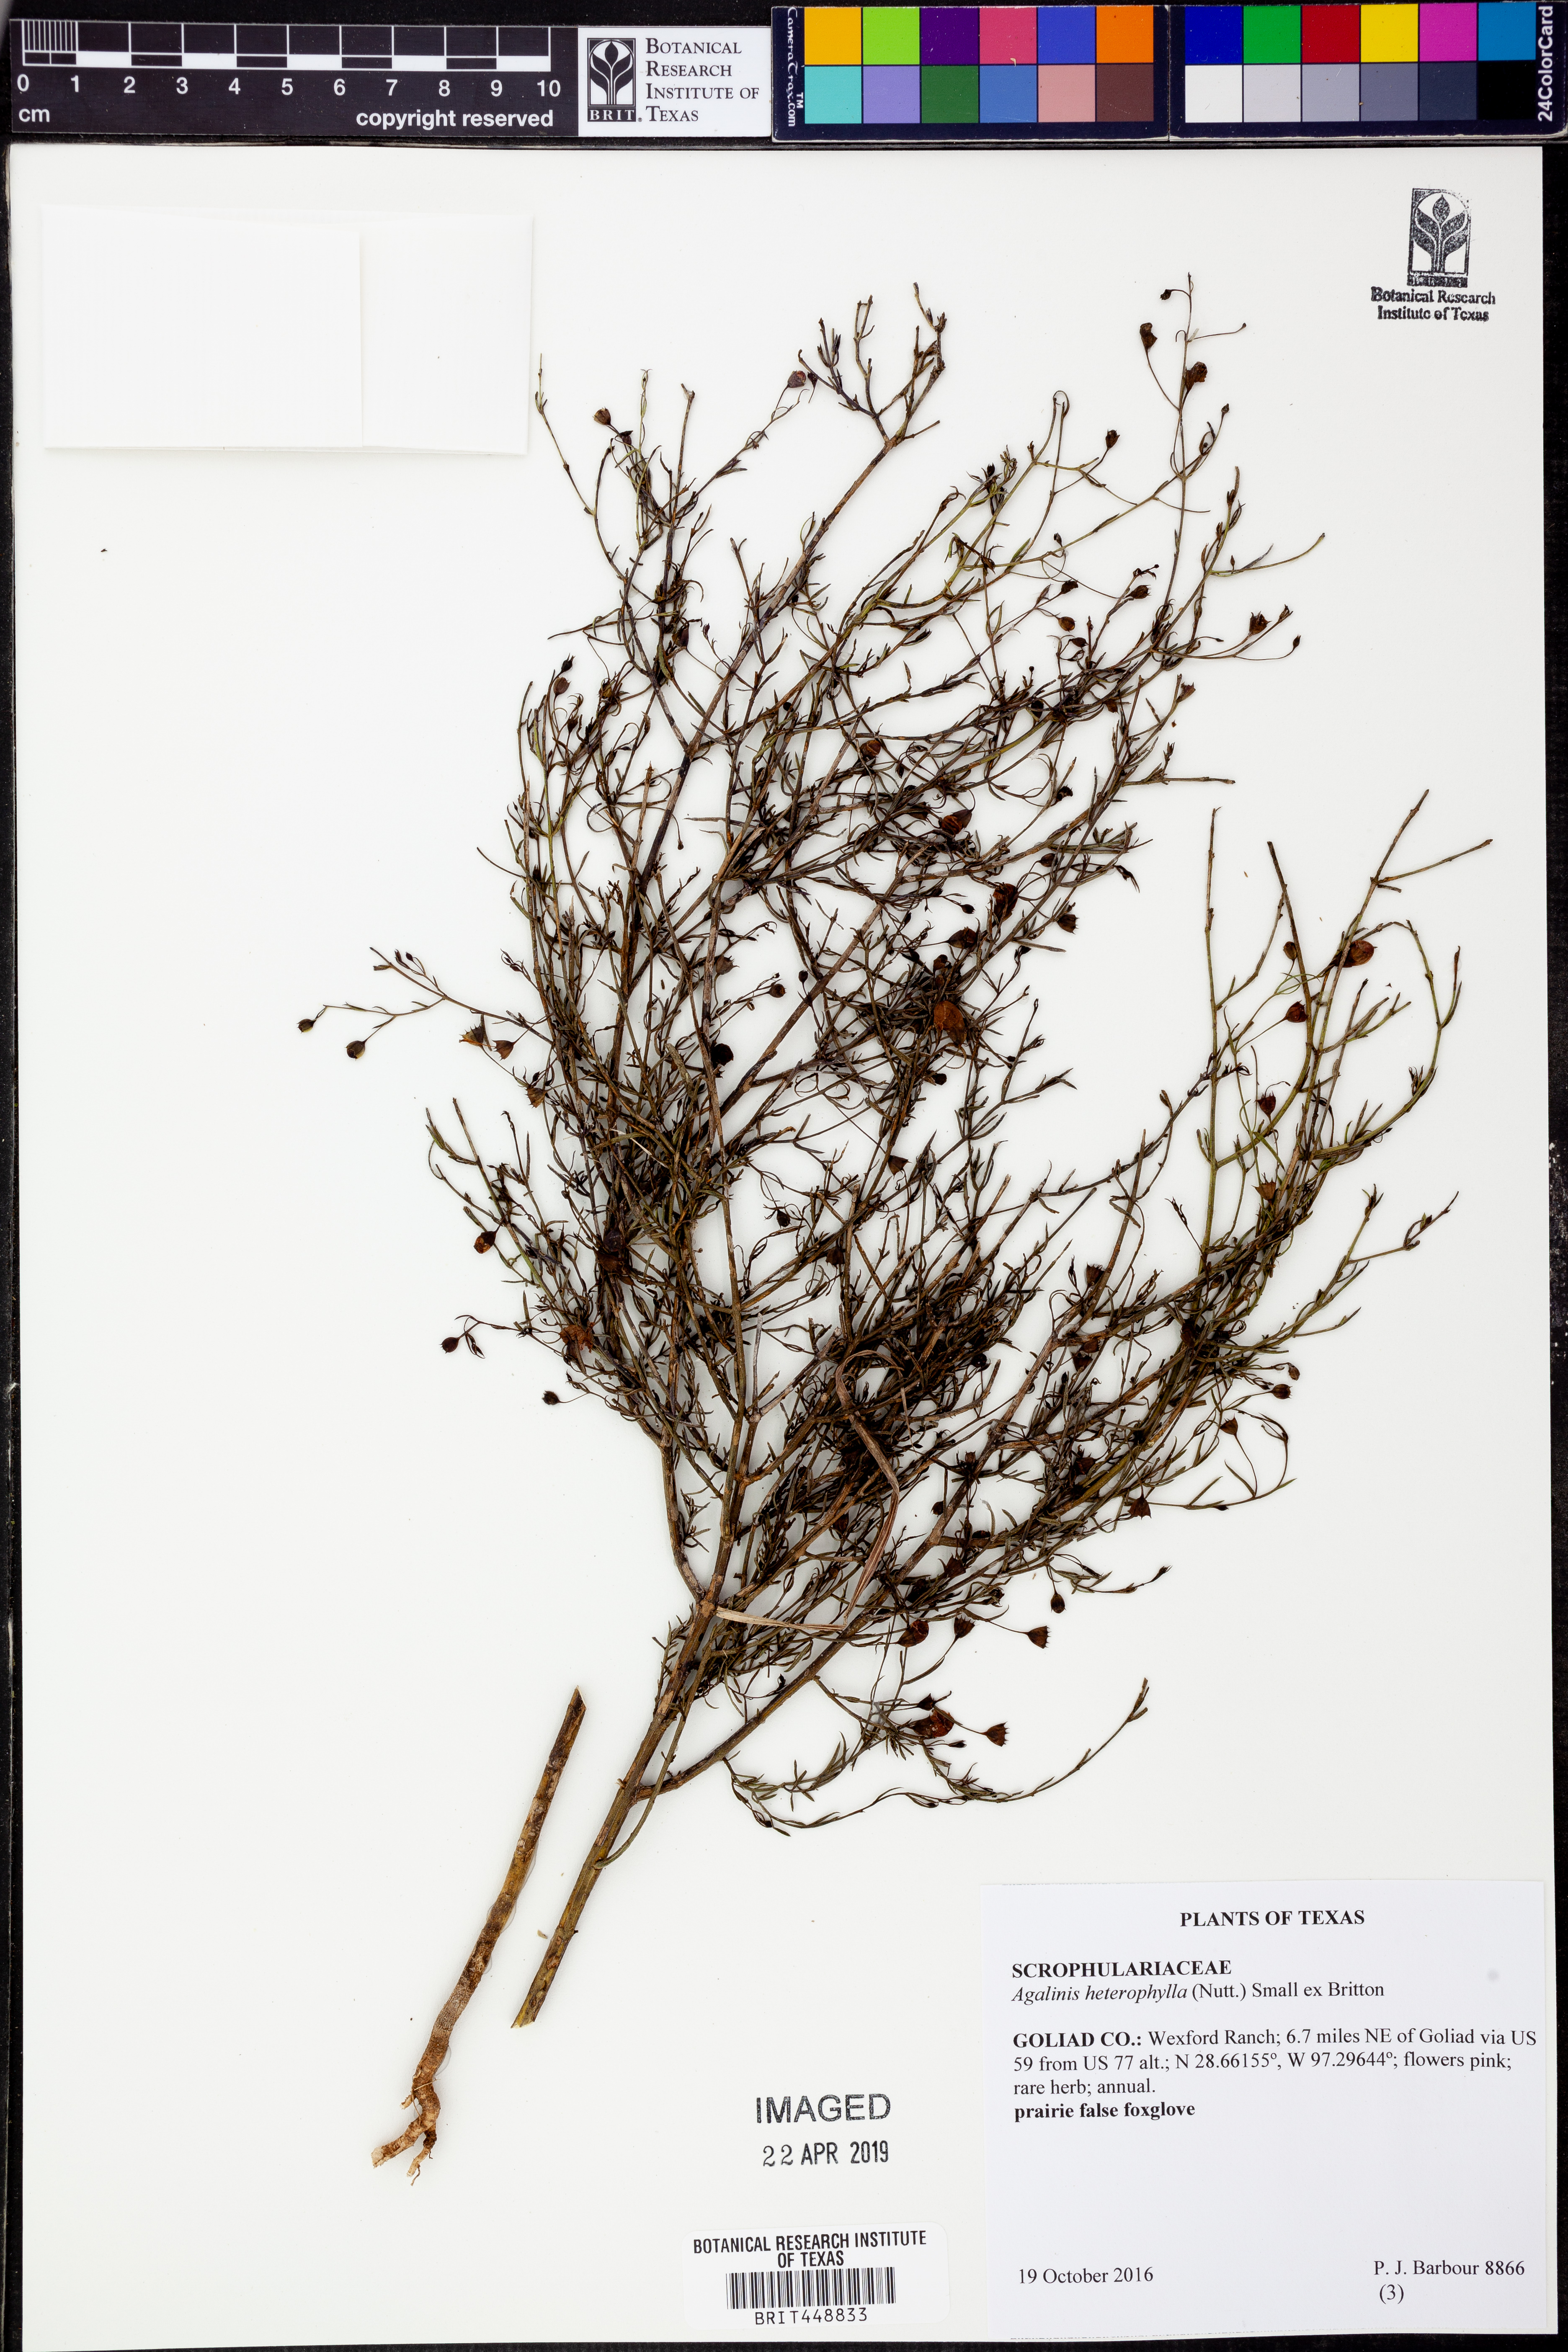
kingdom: Plantae
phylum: Tracheophyta
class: Magnoliopsida
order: Lamiales
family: Orobanchaceae
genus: Agalinis
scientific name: Agalinis heterophylla
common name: Prairie agalinis
